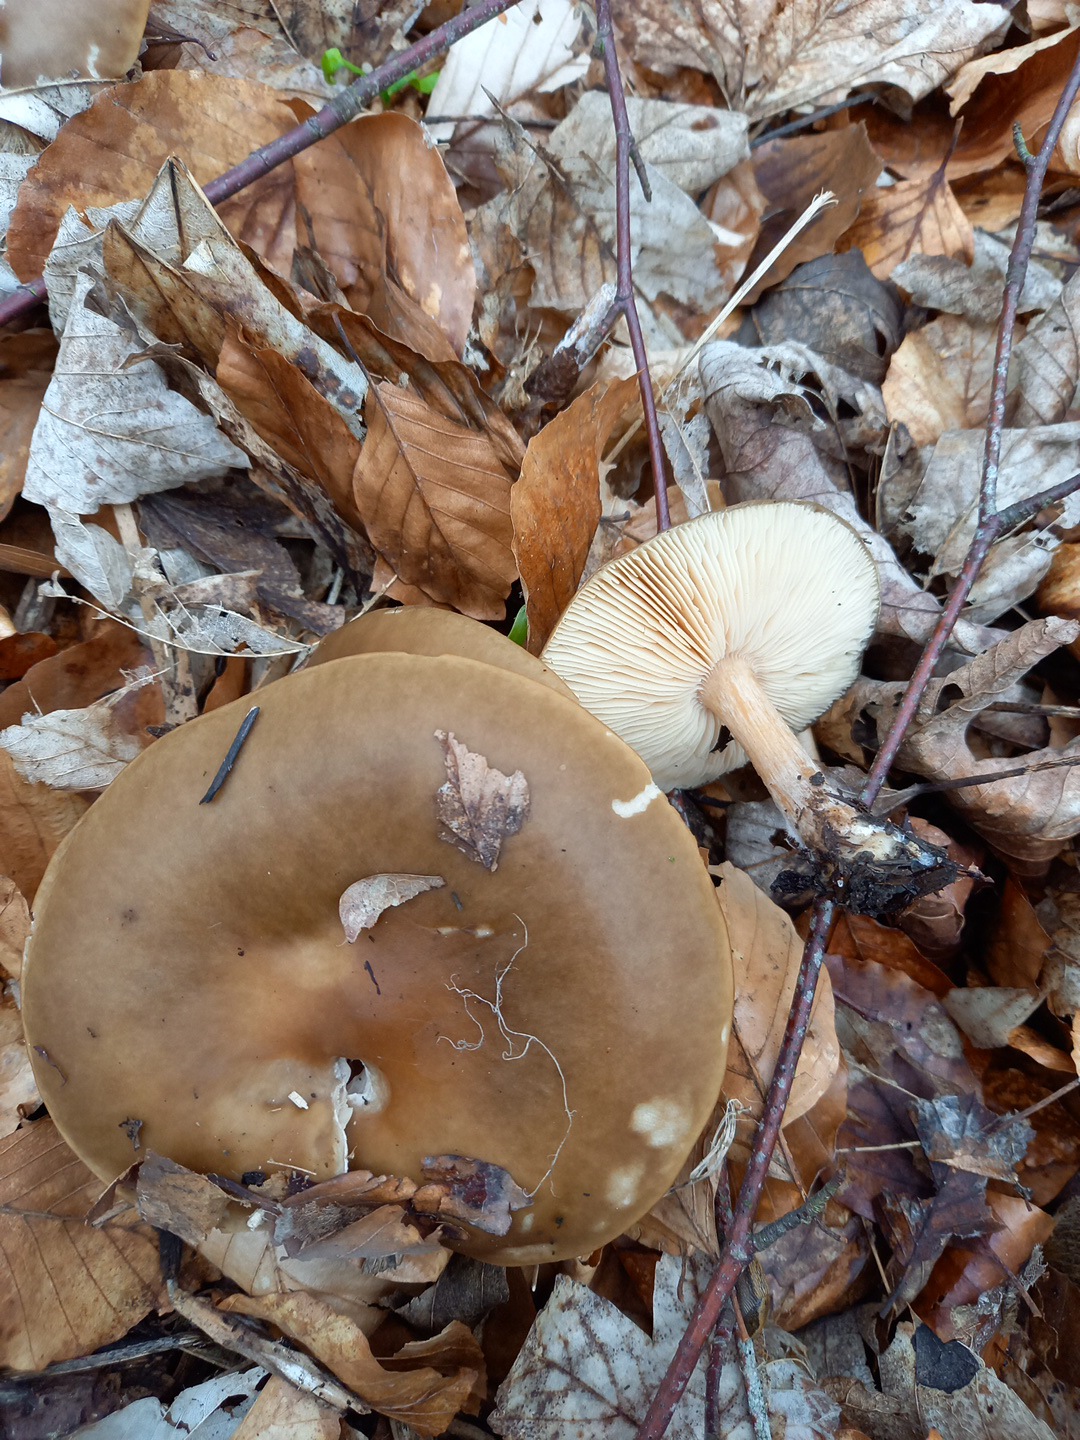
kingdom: Fungi
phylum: Basidiomycota
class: Agaricomycetes
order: Agaricales
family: Tricholomataceae
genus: Melanoleuca
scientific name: Melanoleuca cognata
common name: gyldengrå munkehat
